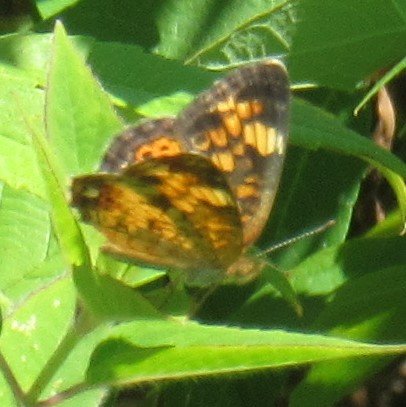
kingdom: Animalia
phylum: Arthropoda
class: Insecta
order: Lepidoptera
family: Nymphalidae
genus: Phyciodes
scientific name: Phyciodes tharos
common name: Pearl Crescent
